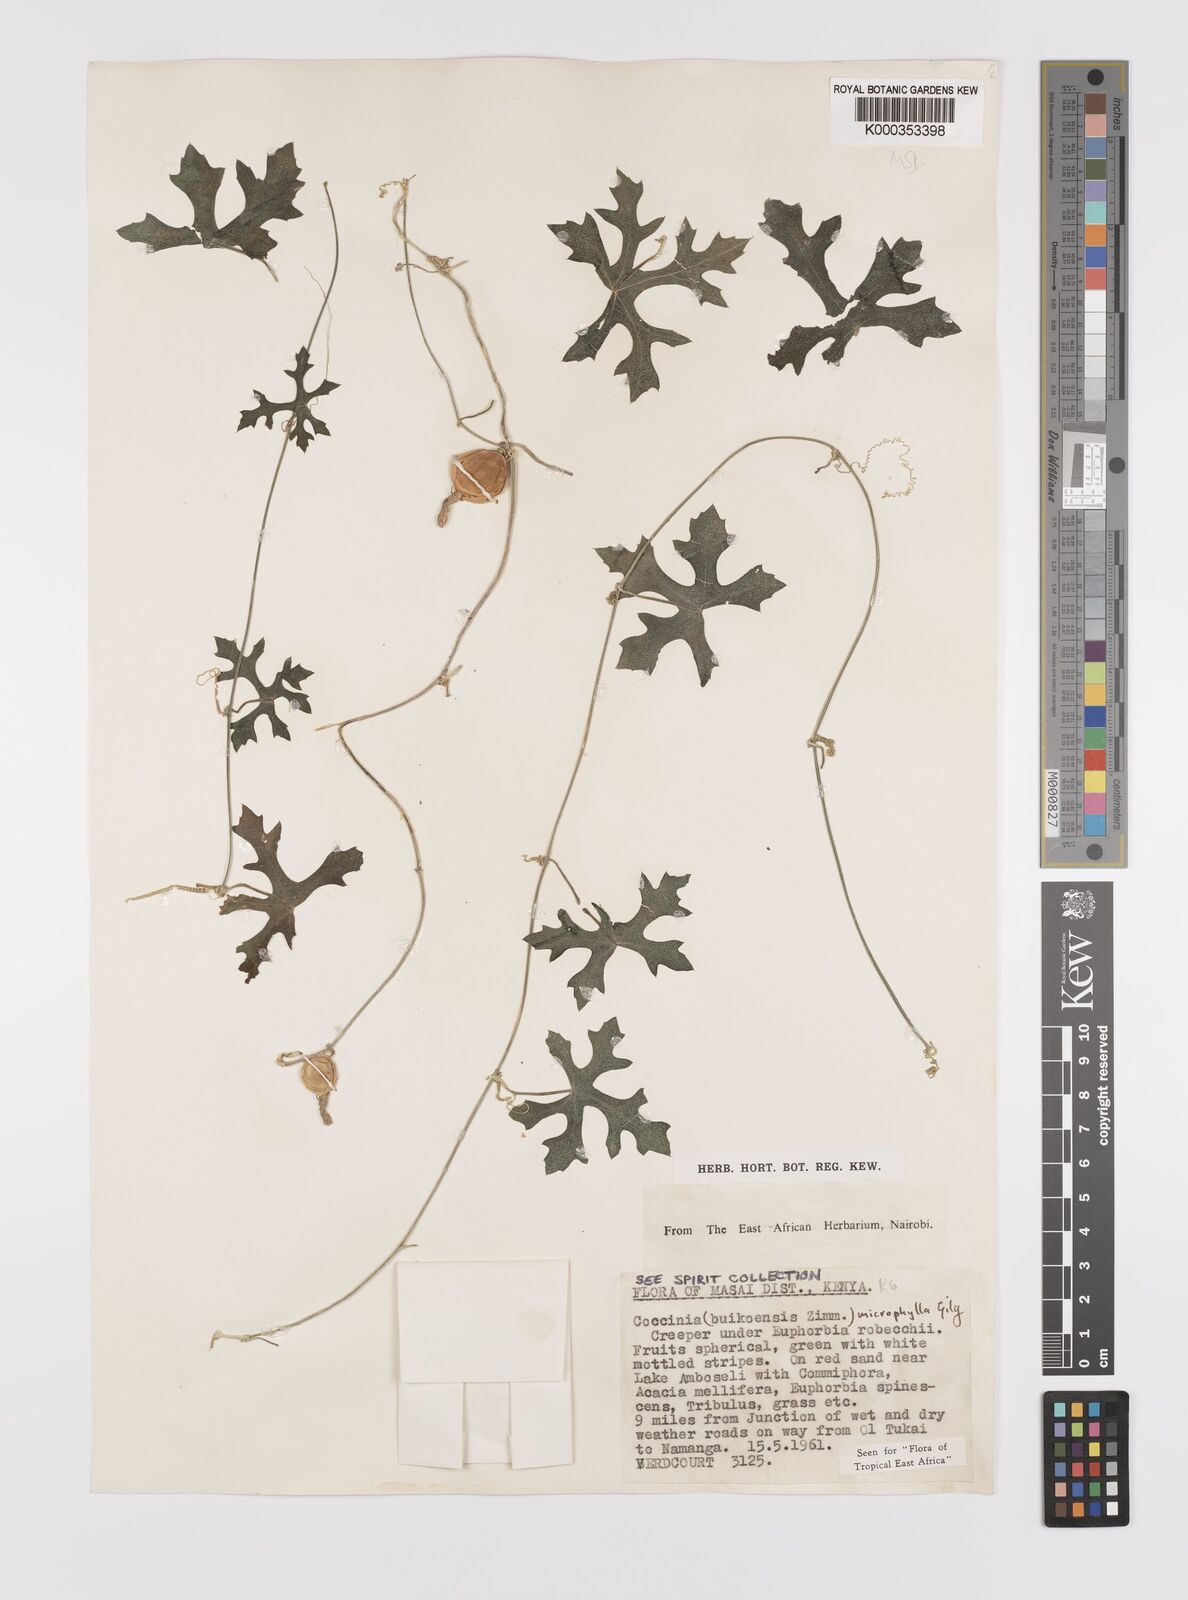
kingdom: Plantae
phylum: Tracheophyta
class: Magnoliopsida
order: Cucurbitales
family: Cucurbitaceae
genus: Coccinia
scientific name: Coccinia microphylla
